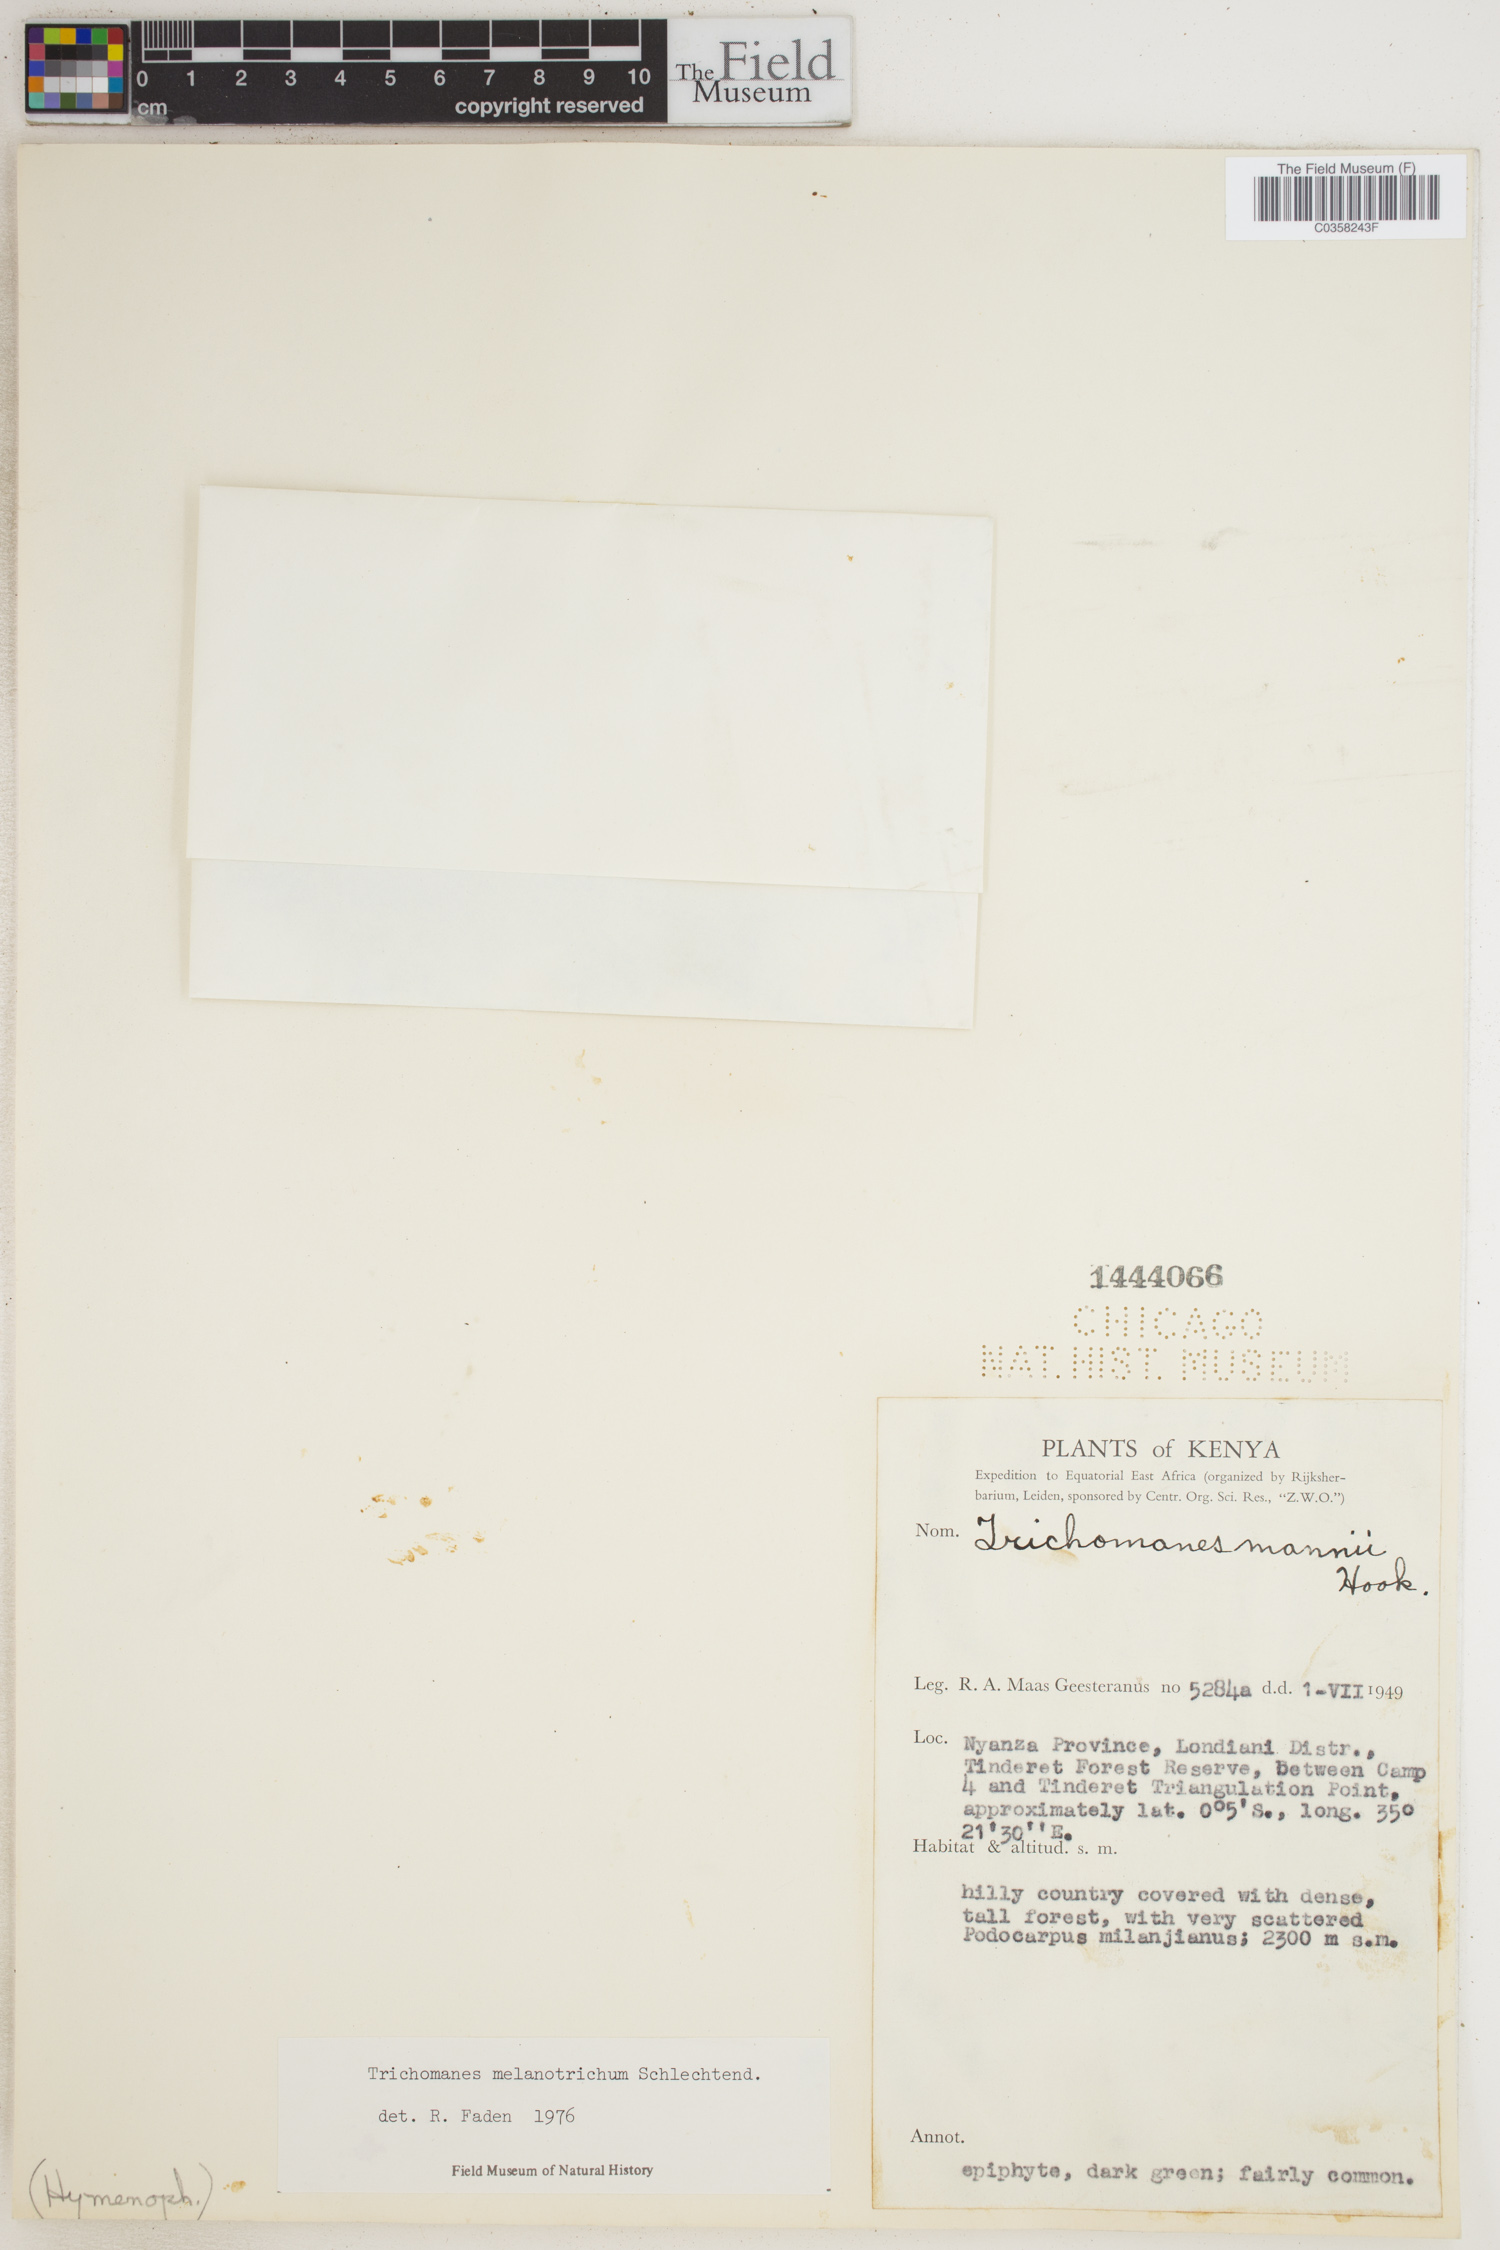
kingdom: Plantae
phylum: Tracheophyta
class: Polypodiopsida
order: Hymenophyllales
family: Hymenophyllaceae
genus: Crepidomanes
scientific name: Crepidomanes melanotrichum
